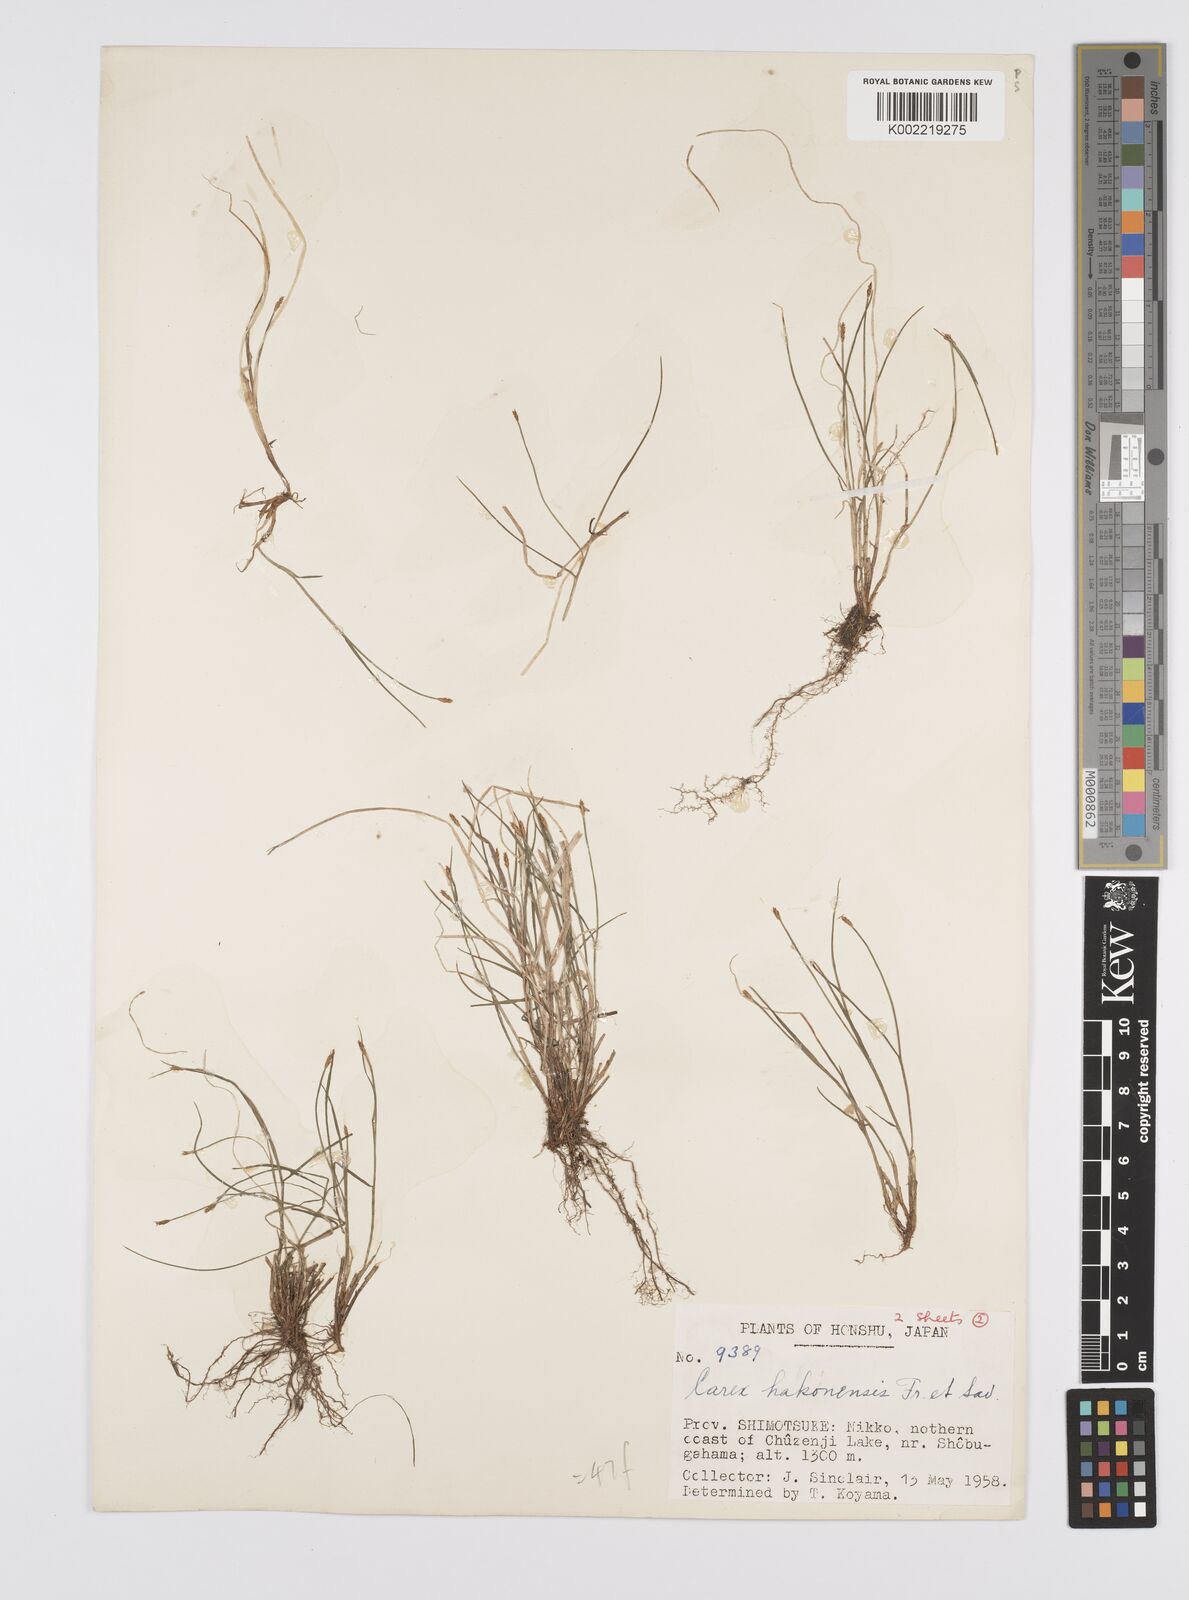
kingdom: Plantae
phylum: Tracheophyta
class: Liliopsida
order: Poales
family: Cyperaceae
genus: Carex
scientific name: Carex onoei
